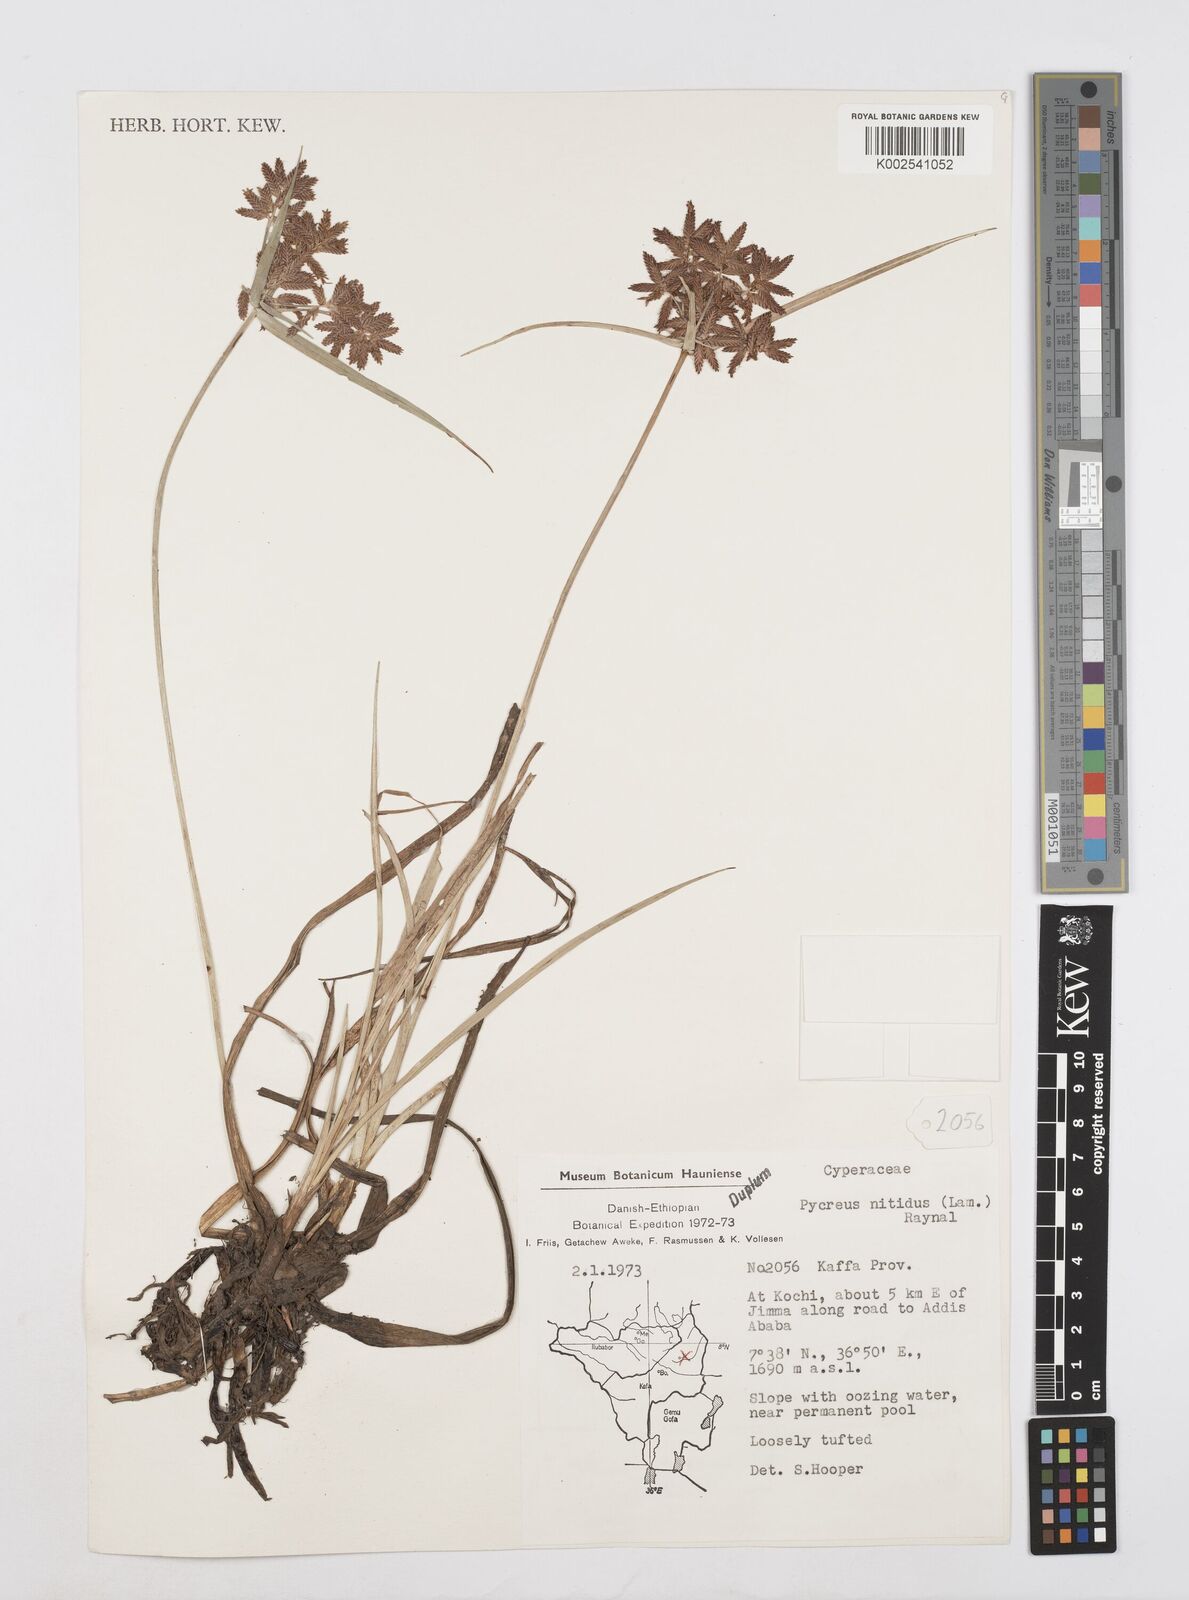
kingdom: Plantae
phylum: Tracheophyta
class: Liliopsida
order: Poales
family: Cyperaceae
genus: Cyperus
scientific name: Cyperus nitidus
